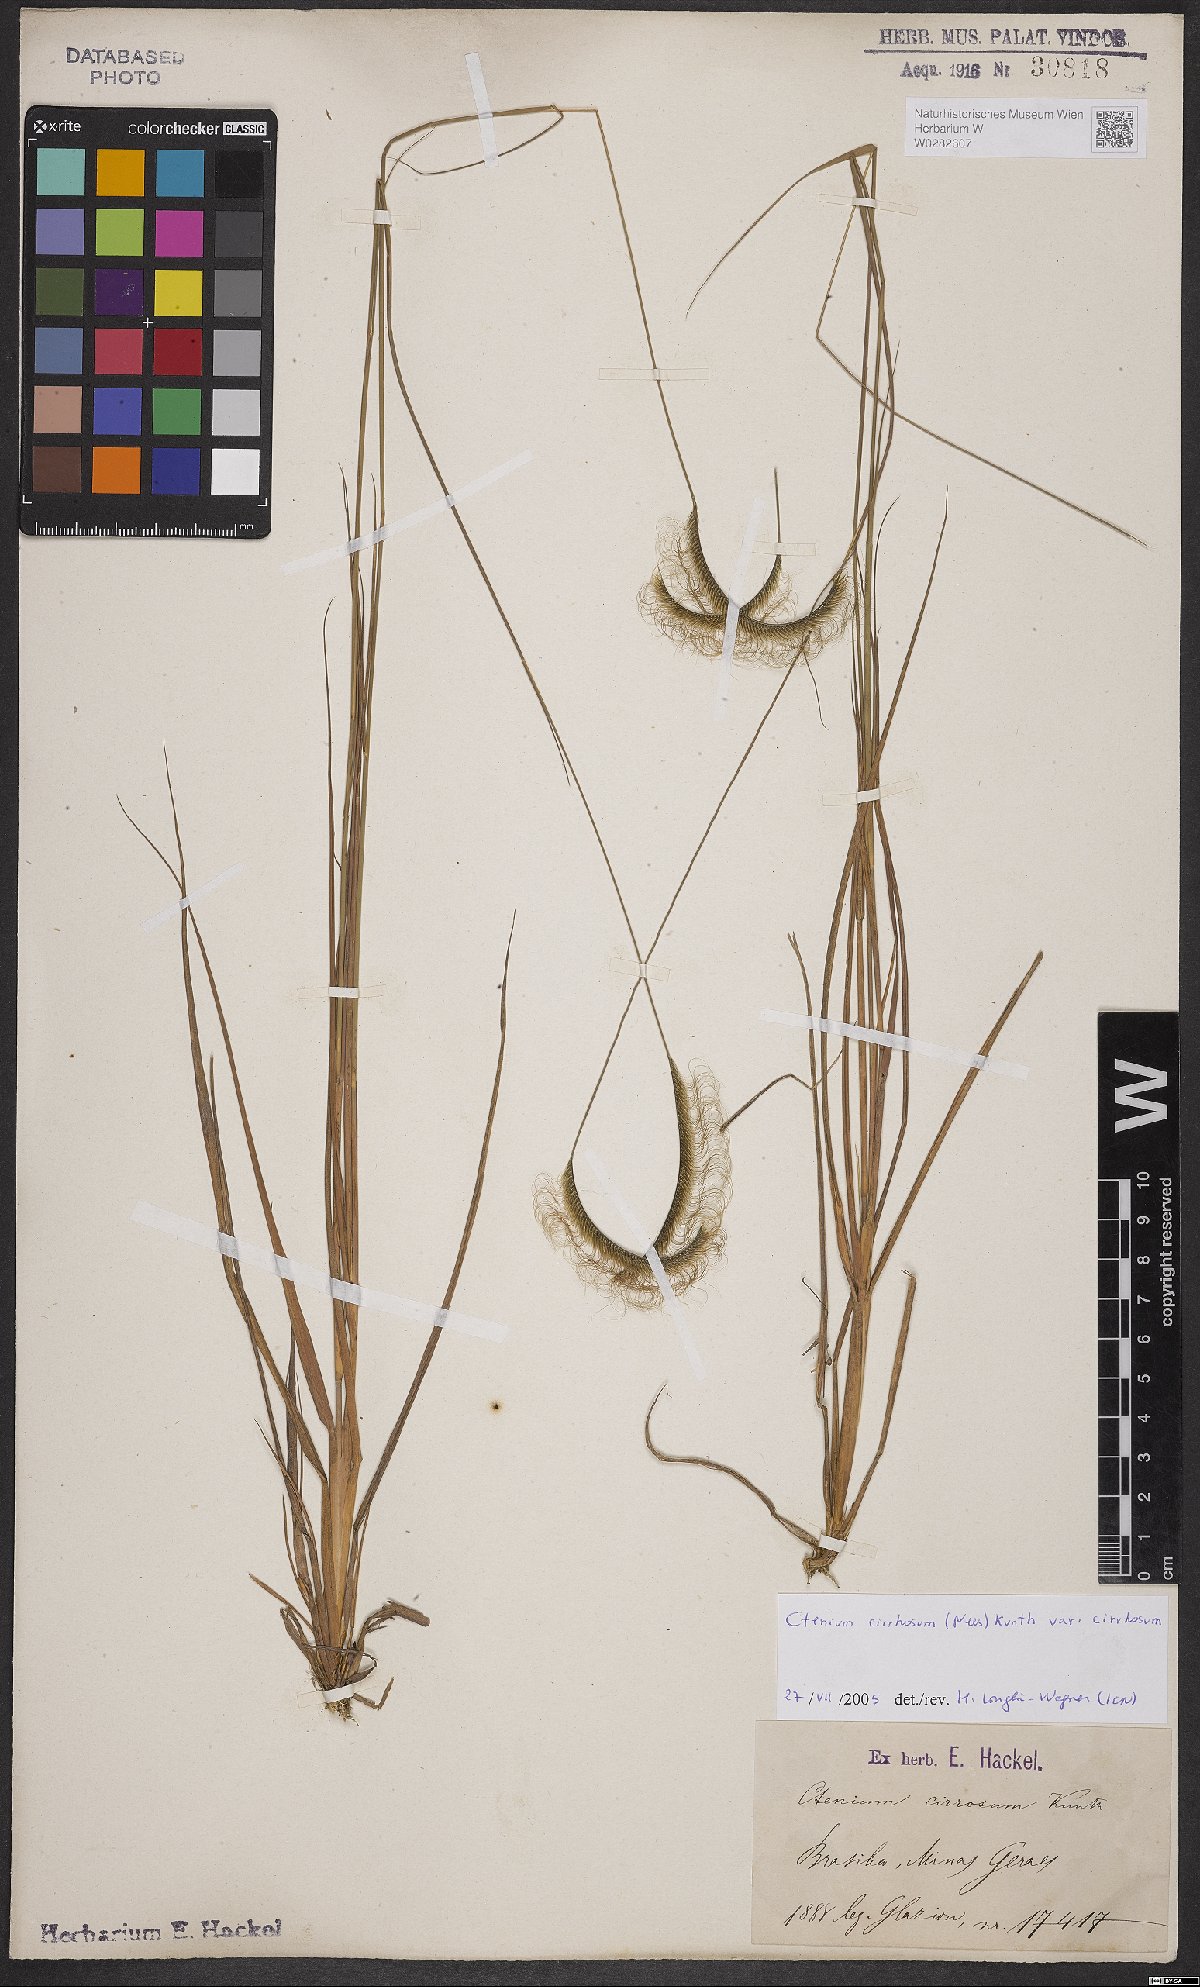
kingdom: Plantae
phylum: Tracheophyta
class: Liliopsida
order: Poales
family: Poaceae
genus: Ctenium
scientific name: Ctenium cirrhosum
